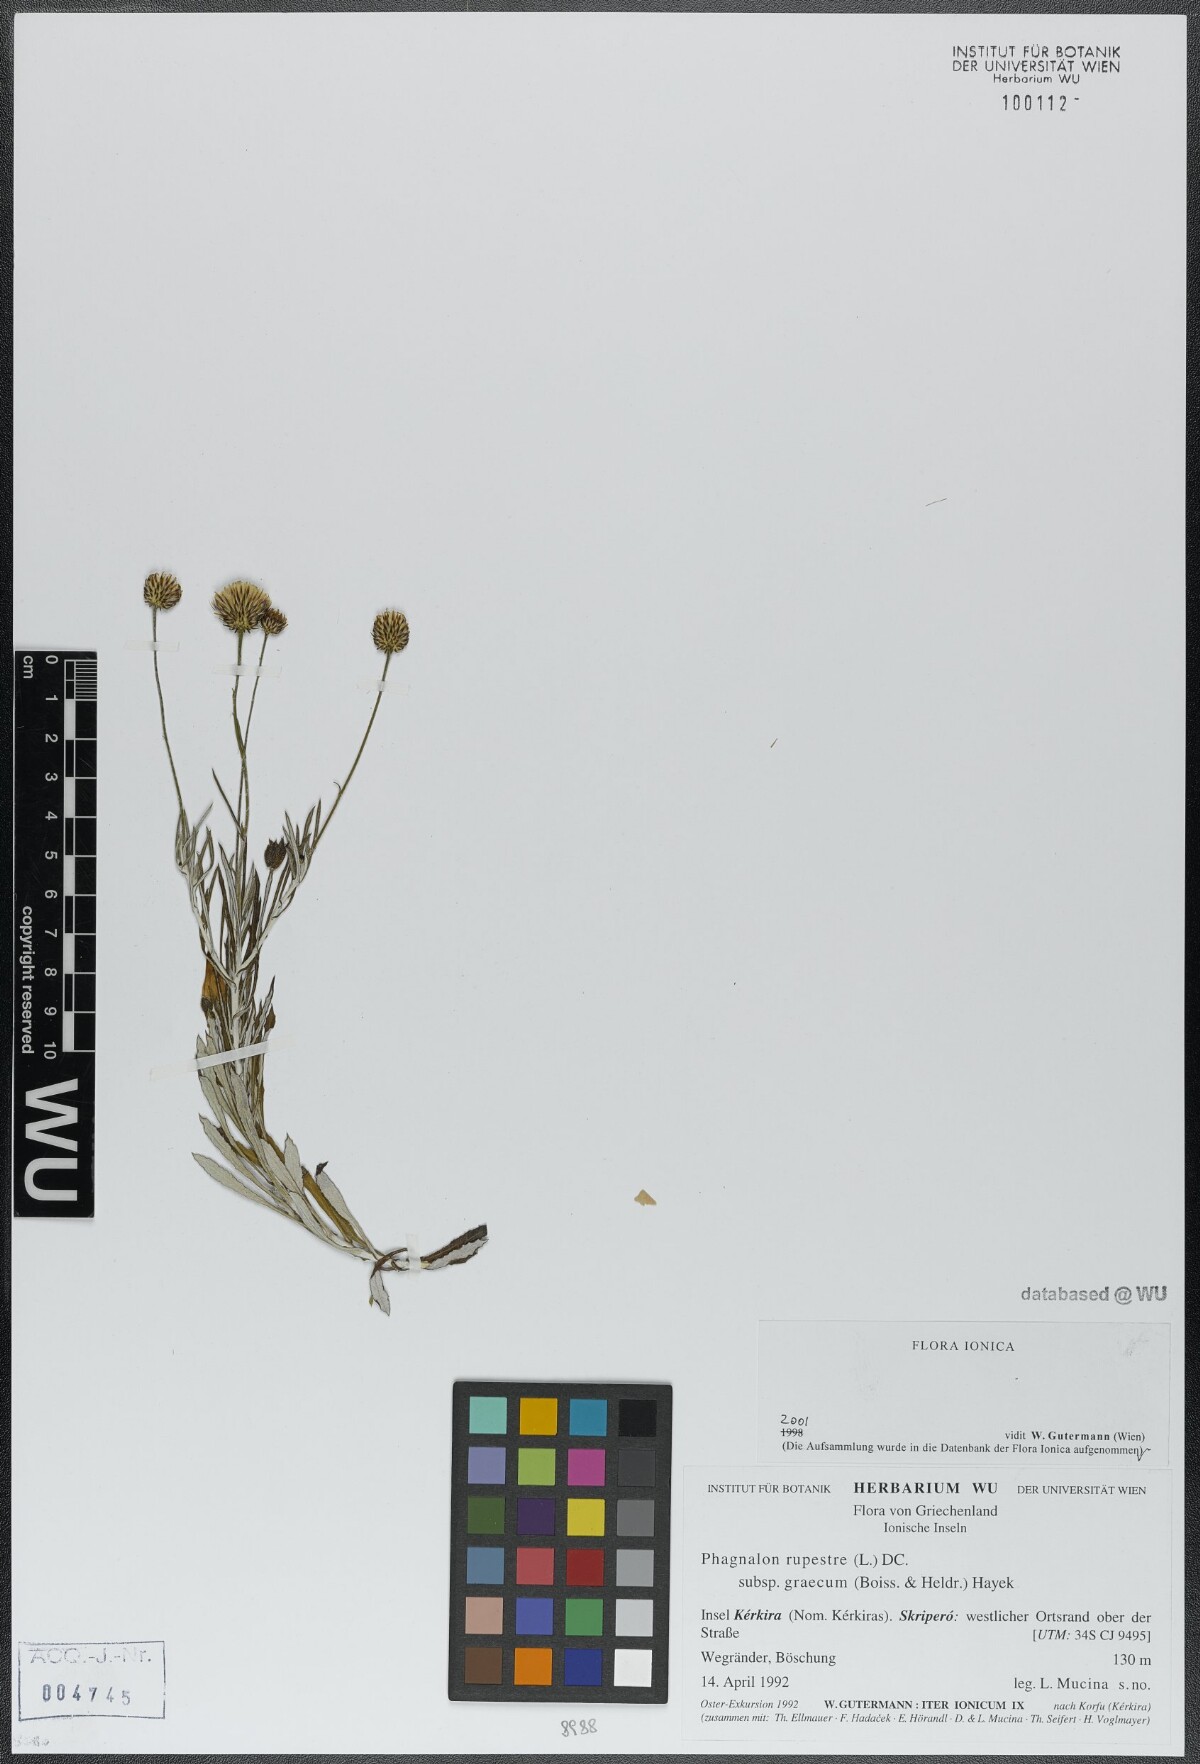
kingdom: Plantae
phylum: Tracheophyta
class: Magnoliopsida
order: Asterales
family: Asteraceae
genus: Phagnalon
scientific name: Phagnalon graecum
